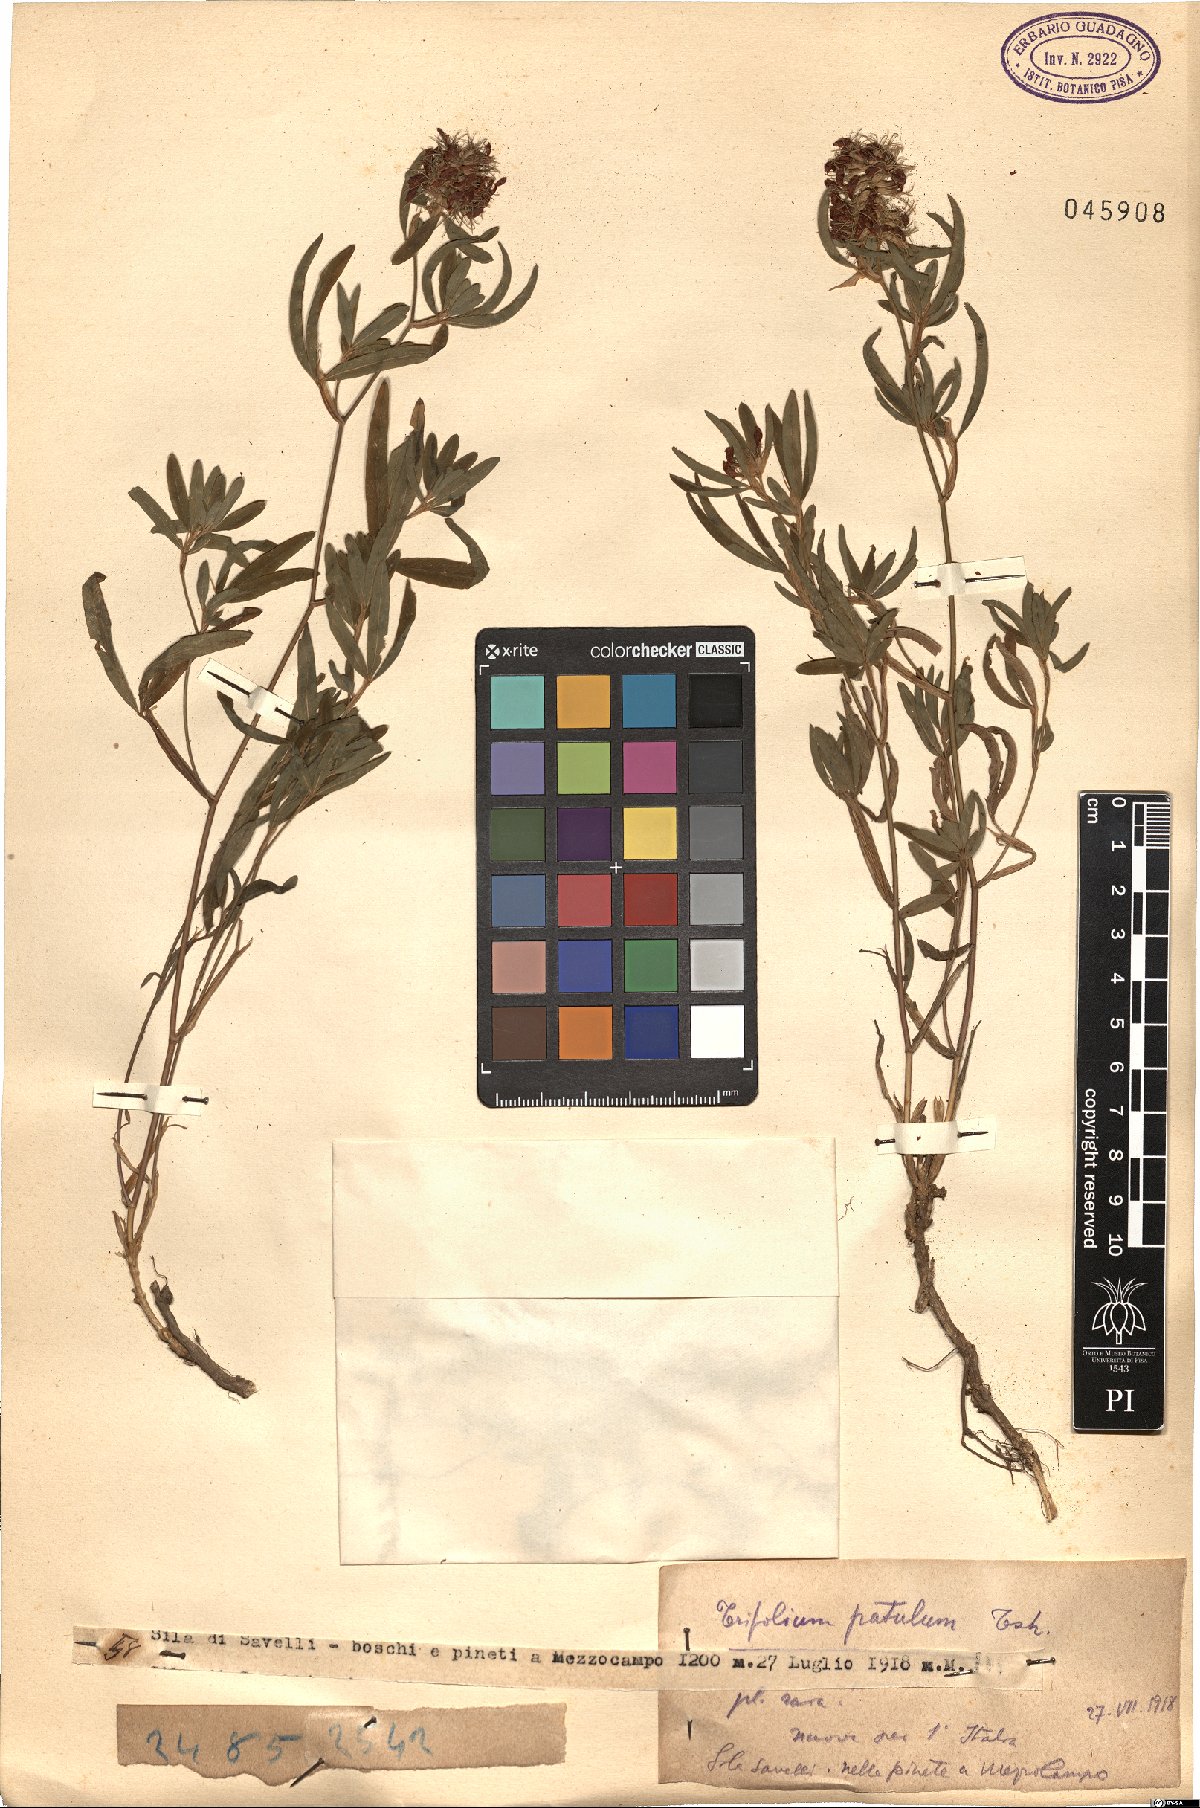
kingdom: Plantae
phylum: Tracheophyta
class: Magnoliopsida
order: Fabales
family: Fabaceae
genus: Trifolium
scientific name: Trifolium patulum
